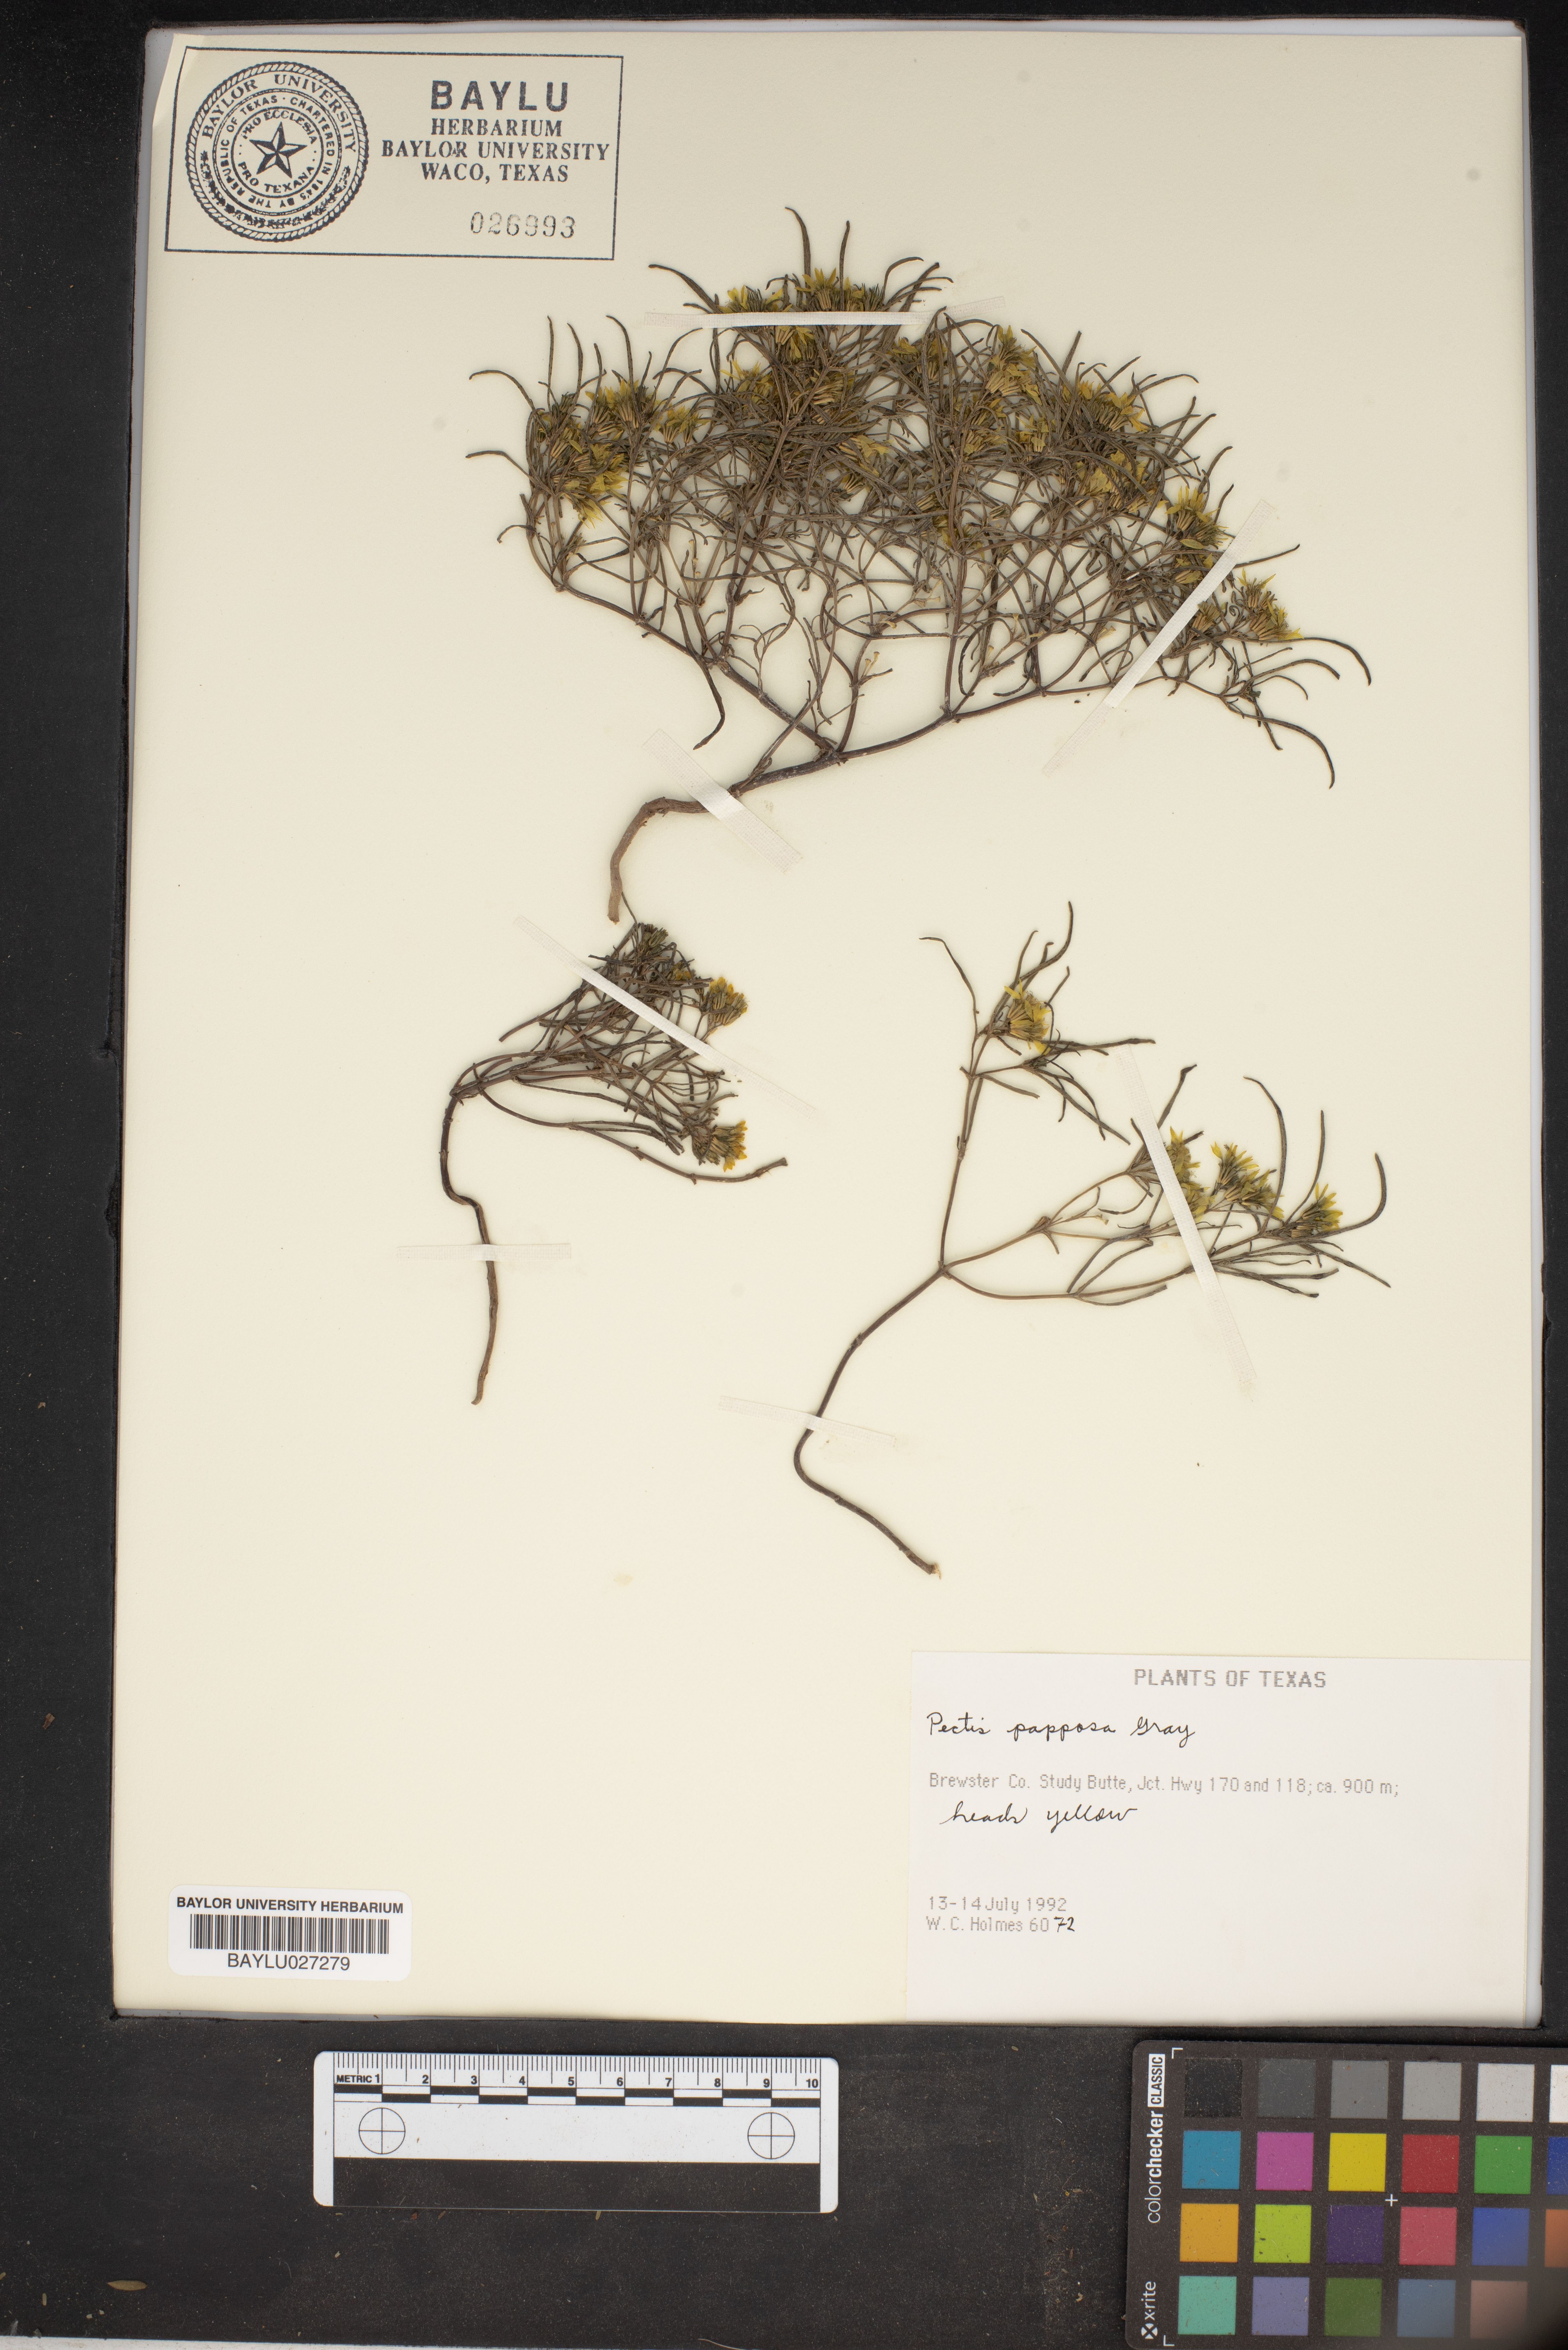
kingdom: Plantae
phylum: Tracheophyta
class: Magnoliopsida
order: Asterales
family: Asteraceae
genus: Pectis
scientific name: Pectis papposa
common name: Many-bristle chinchweed
